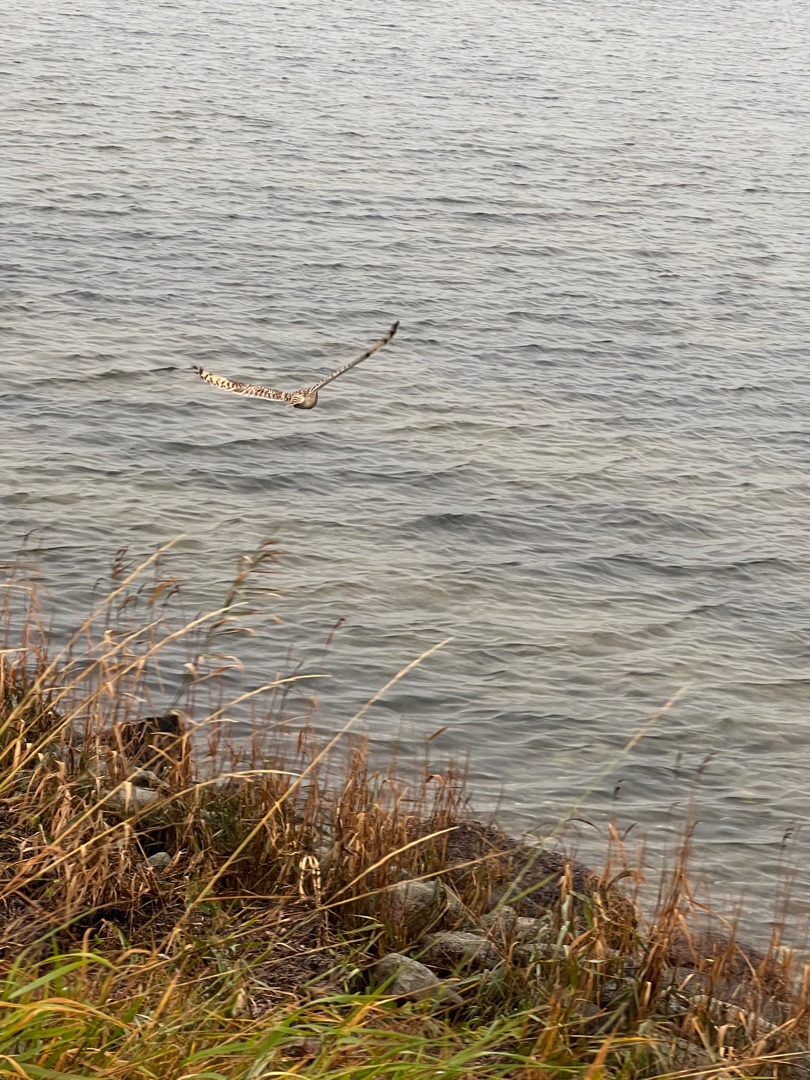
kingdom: Animalia
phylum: Chordata
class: Aves
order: Strigiformes
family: Strigidae
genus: Asio
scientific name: Asio flammeus
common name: Mosehornugle
